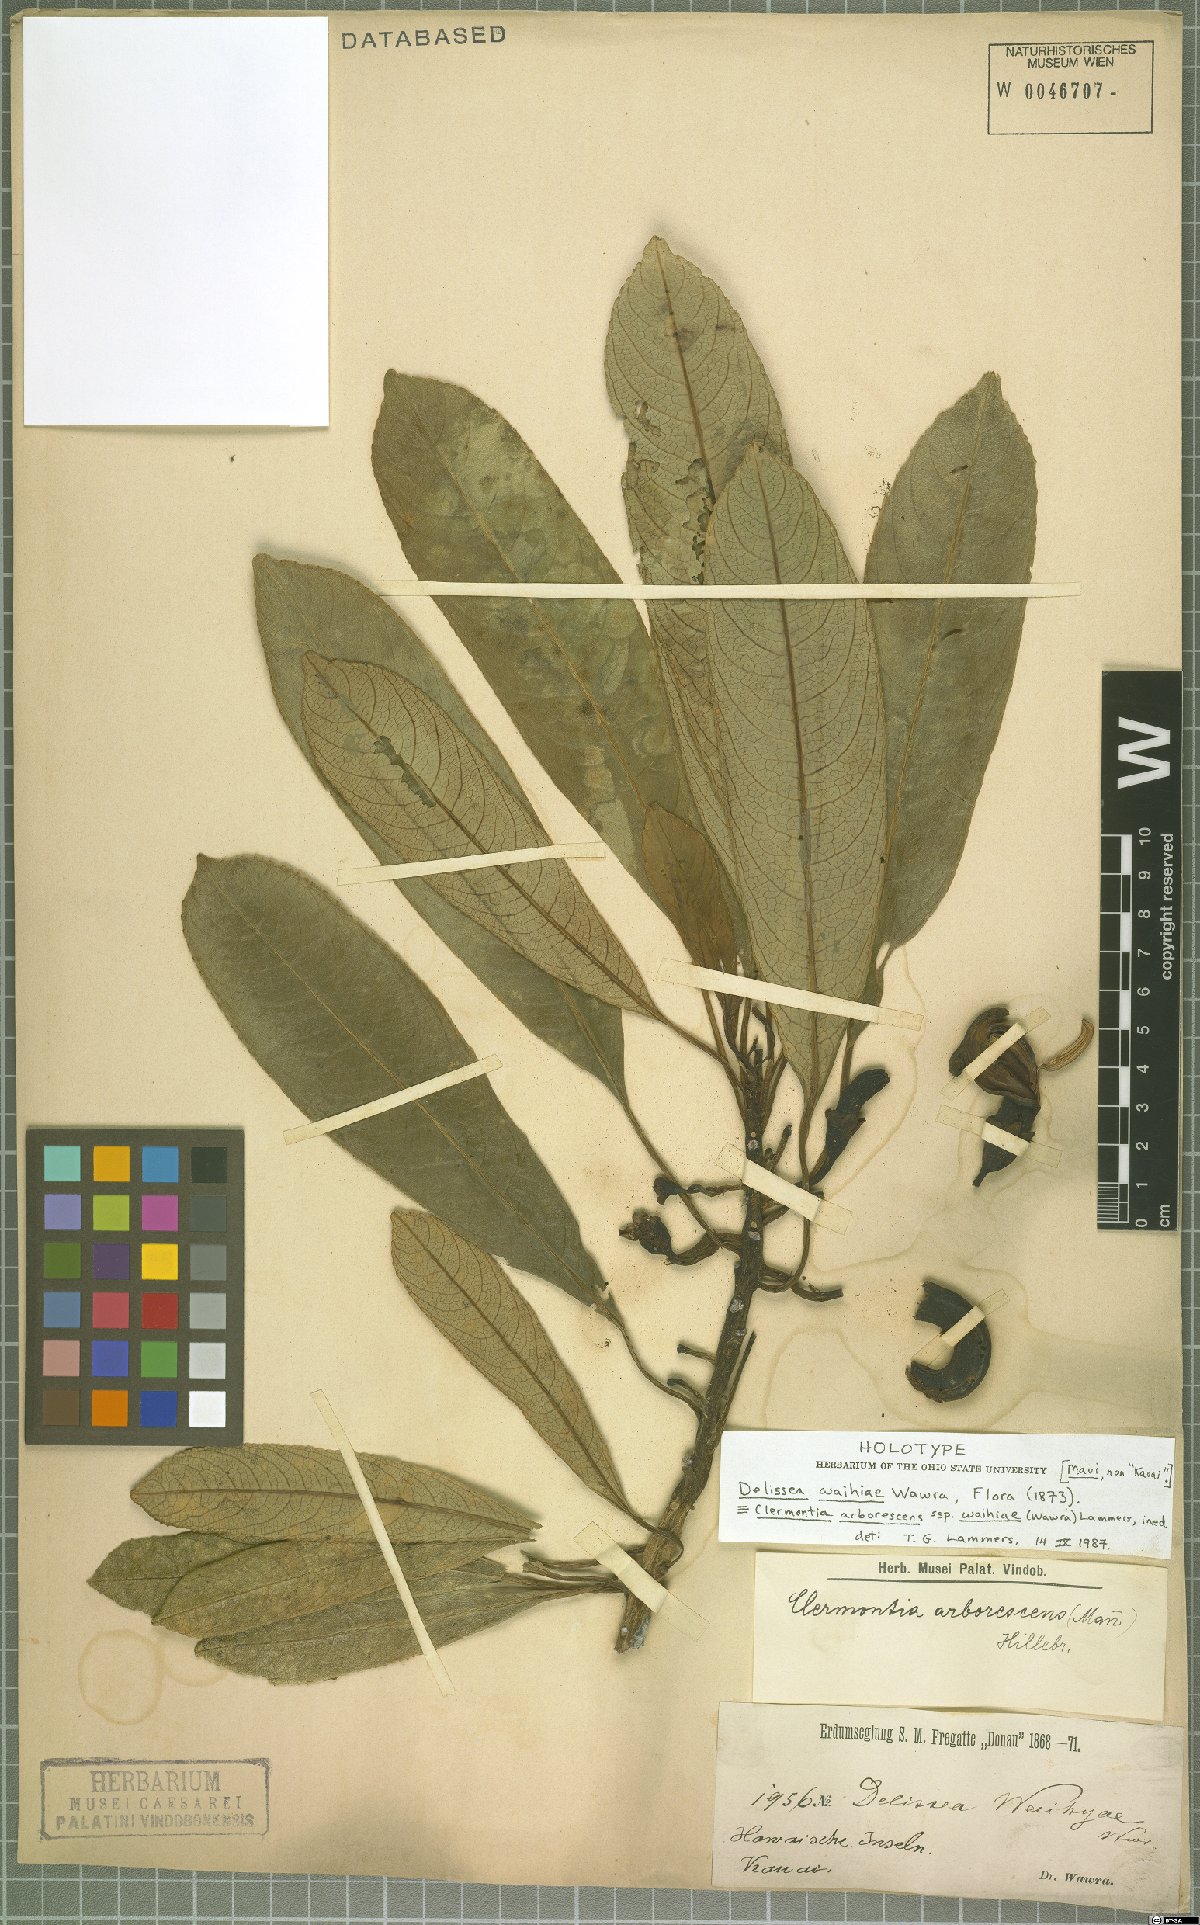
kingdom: Plantae
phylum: Tracheophyta
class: Magnoliopsida
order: Asterales
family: Campanulaceae
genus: Clermontia
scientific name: Clermontia arborescens
